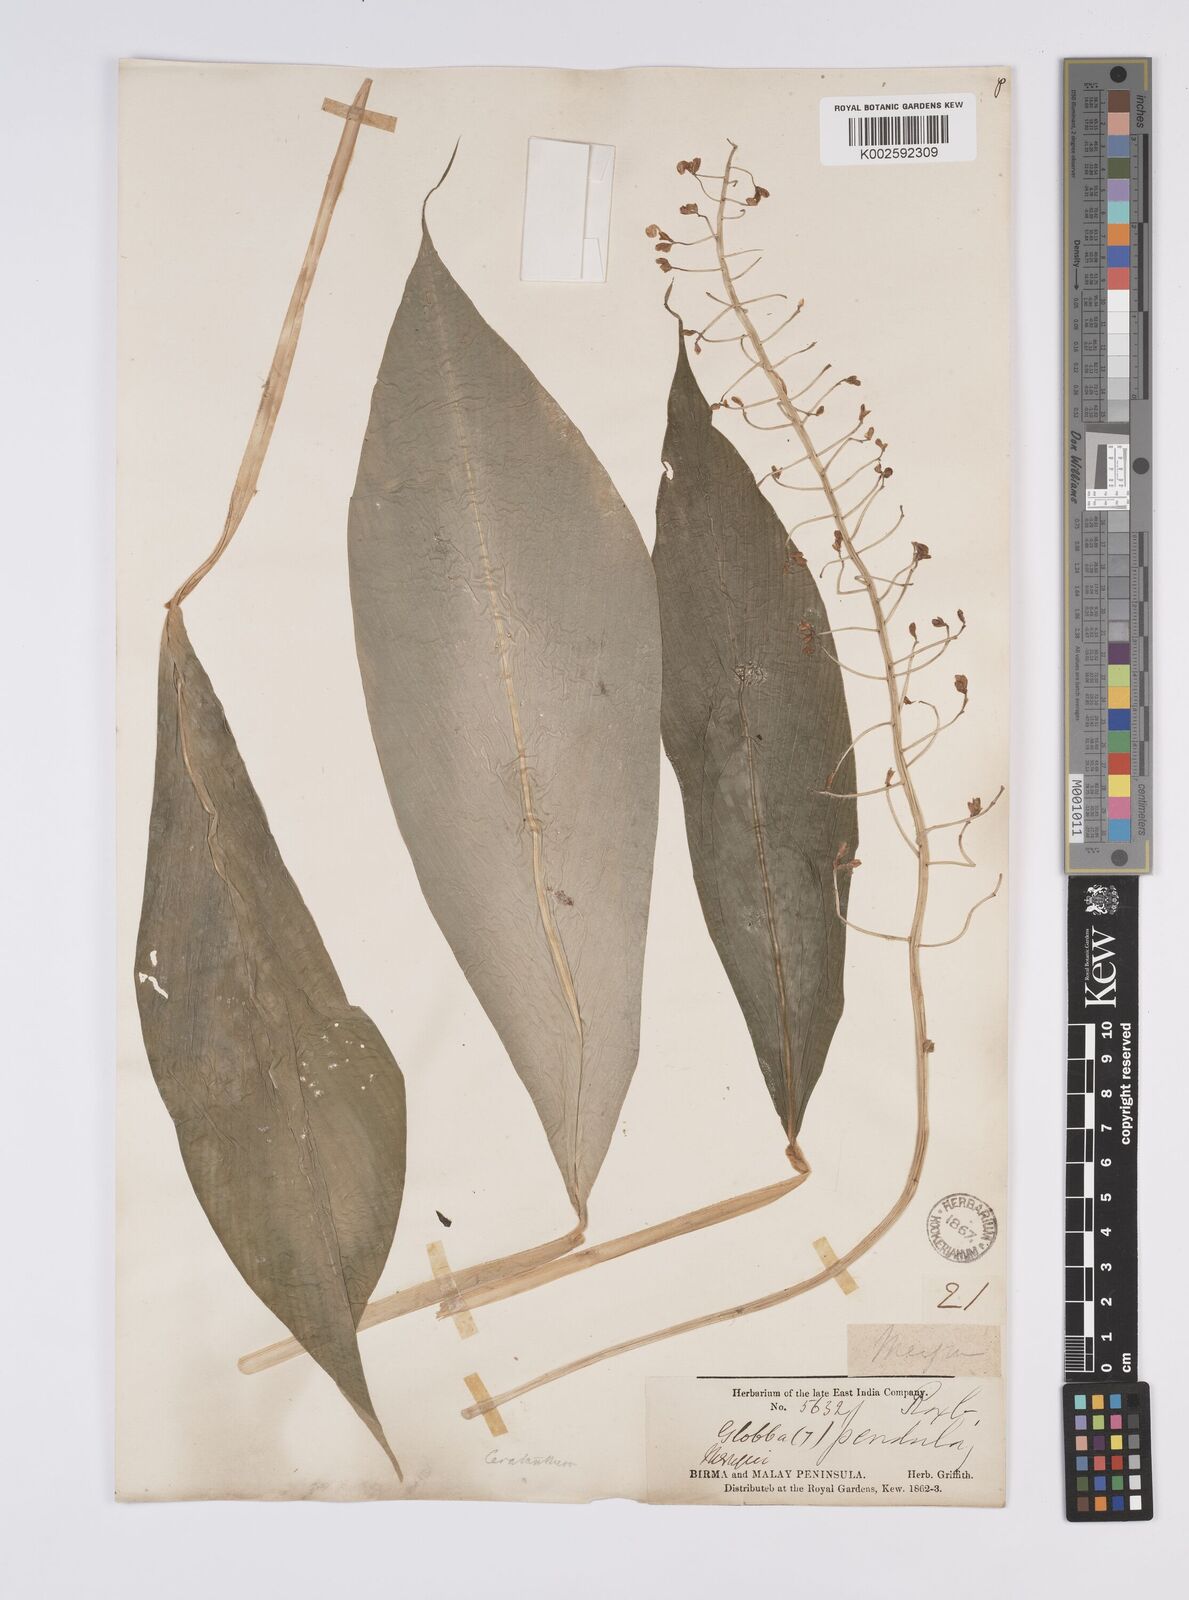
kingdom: Plantae
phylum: Tracheophyta
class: Liliopsida
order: Zingiberales
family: Zingiberaceae
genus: Globba
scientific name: Globba pendula
